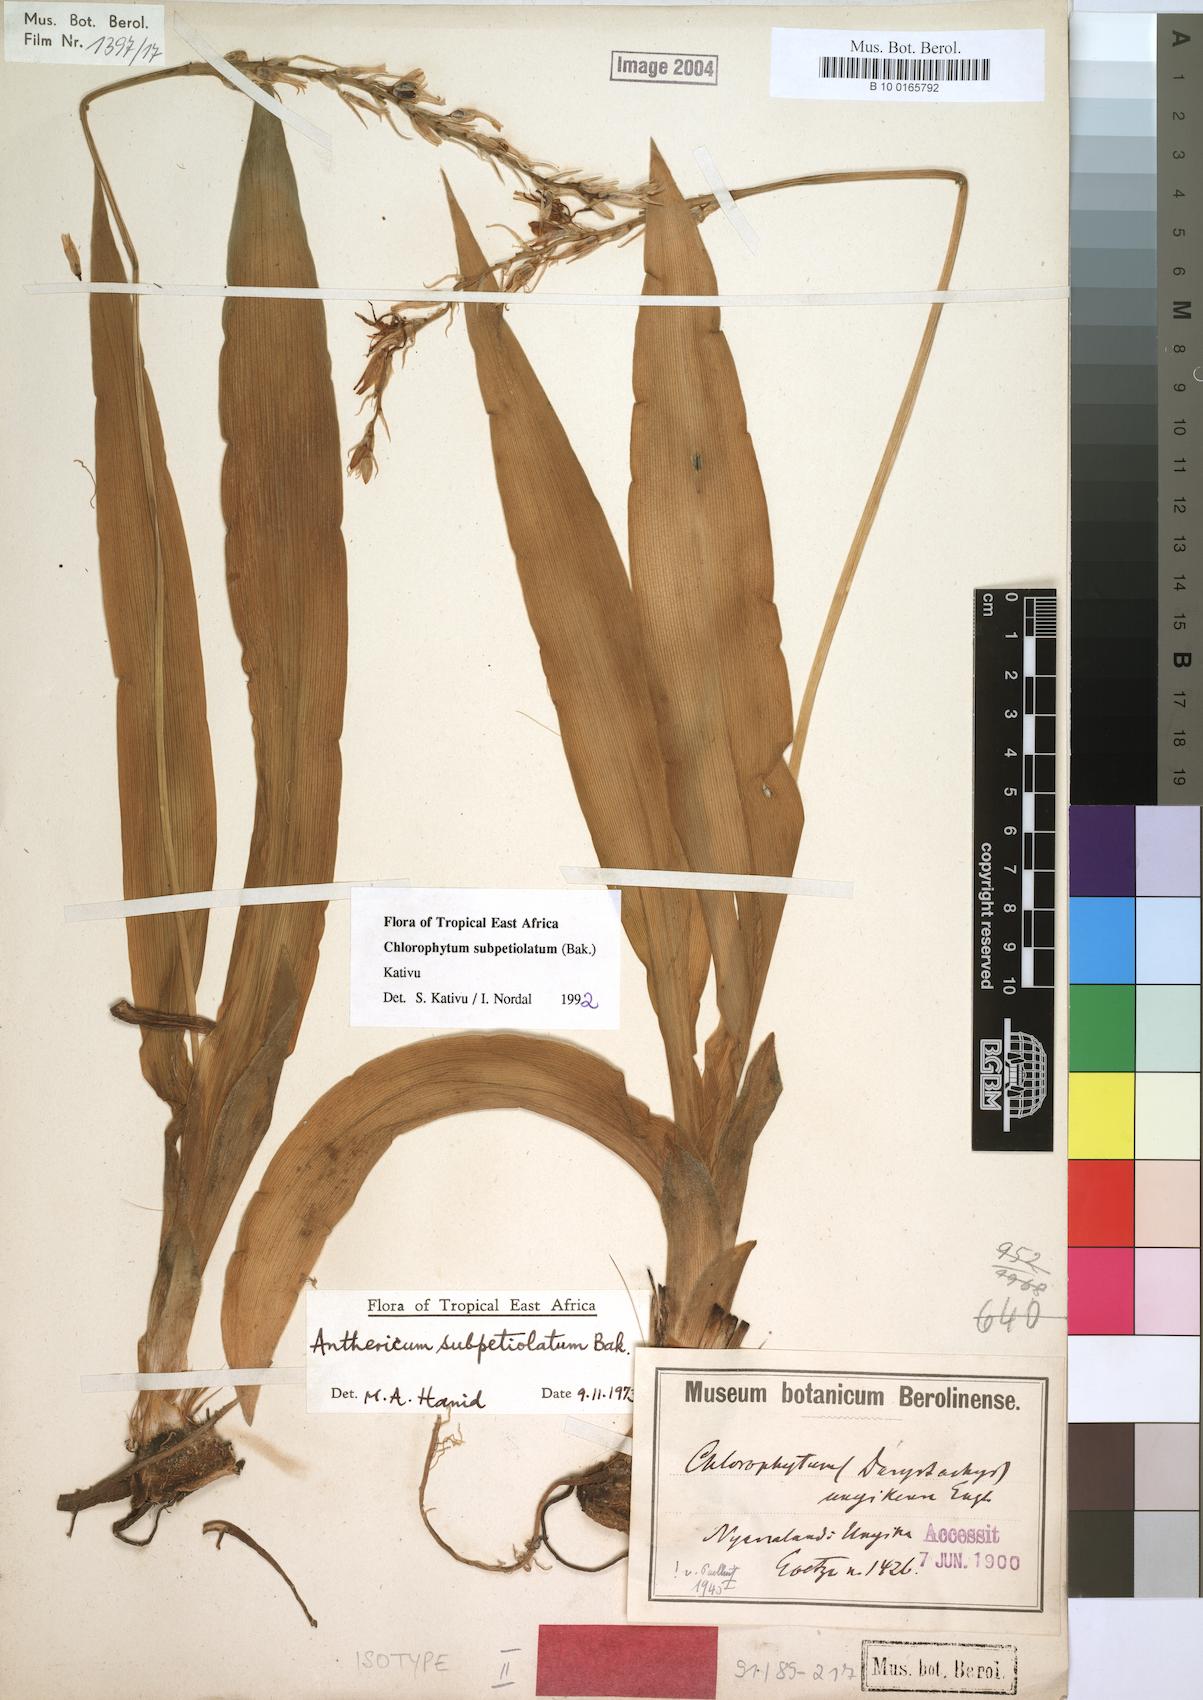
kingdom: Plantae
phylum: Tracheophyta
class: Liliopsida
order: Asparagales
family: Asparagaceae
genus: Chlorophytum
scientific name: Chlorophytum subpetiolatum
